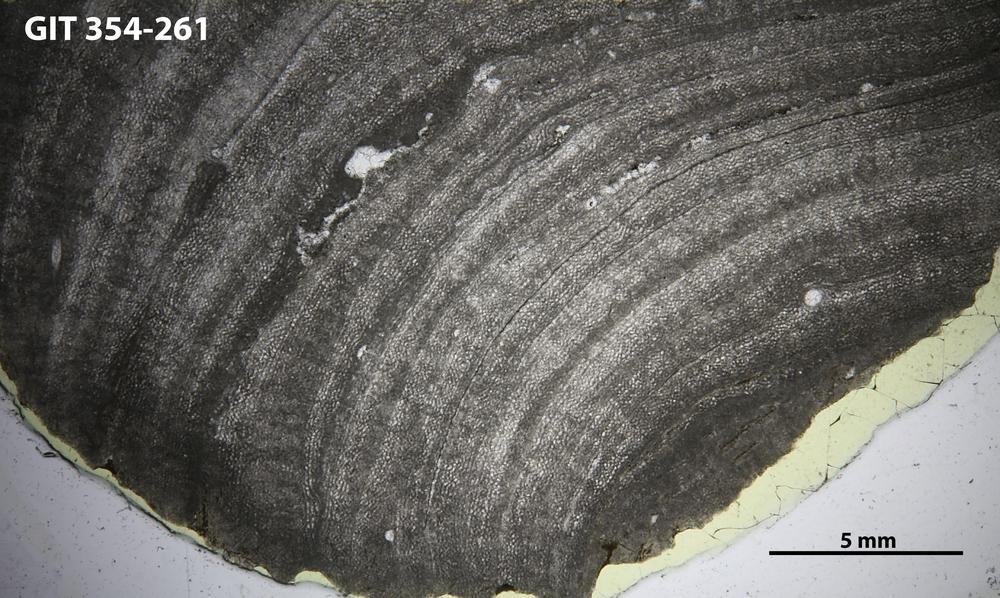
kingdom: Animalia
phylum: Porifera
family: Ecclimadictyidae
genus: Ecclimadictyon
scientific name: Ecclimadictyon Clathrodictyon microvesiculosum
